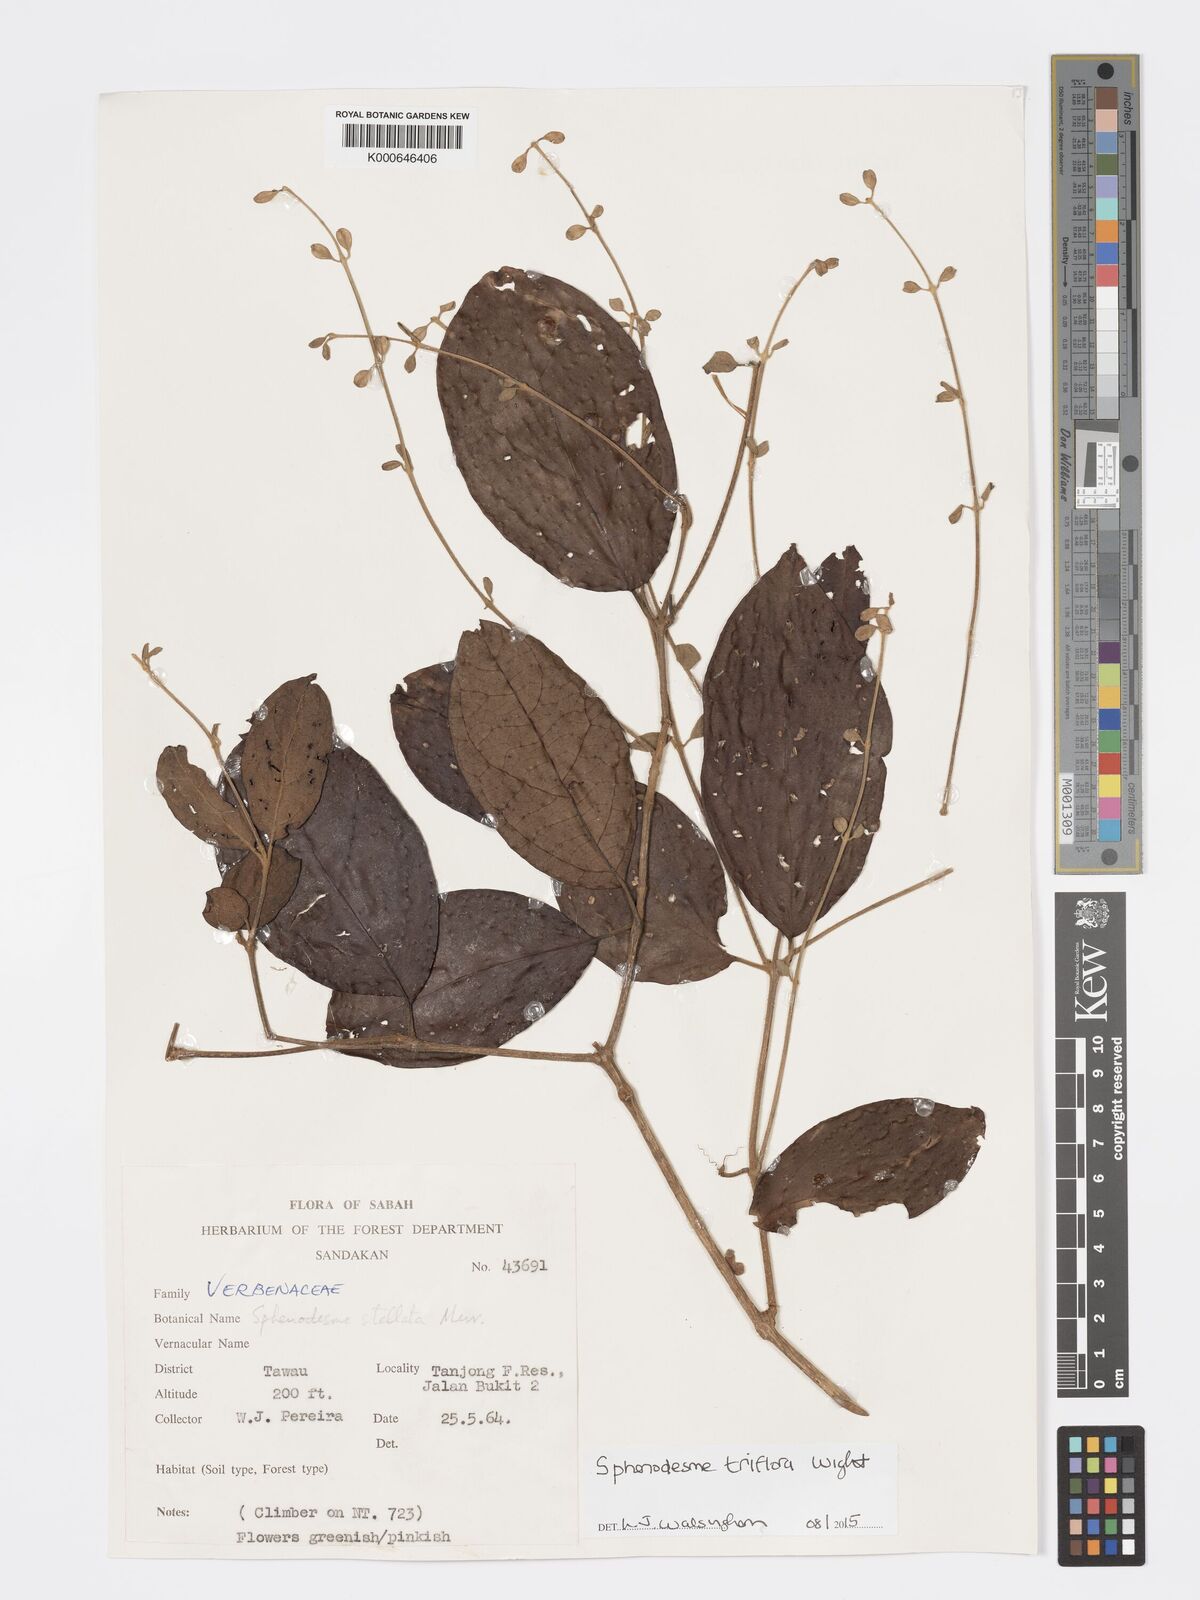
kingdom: Plantae
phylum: Tracheophyta
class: Magnoliopsida
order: Lamiales
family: Lamiaceae
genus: Sphenodesme
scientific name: Sphenodesme triflora
